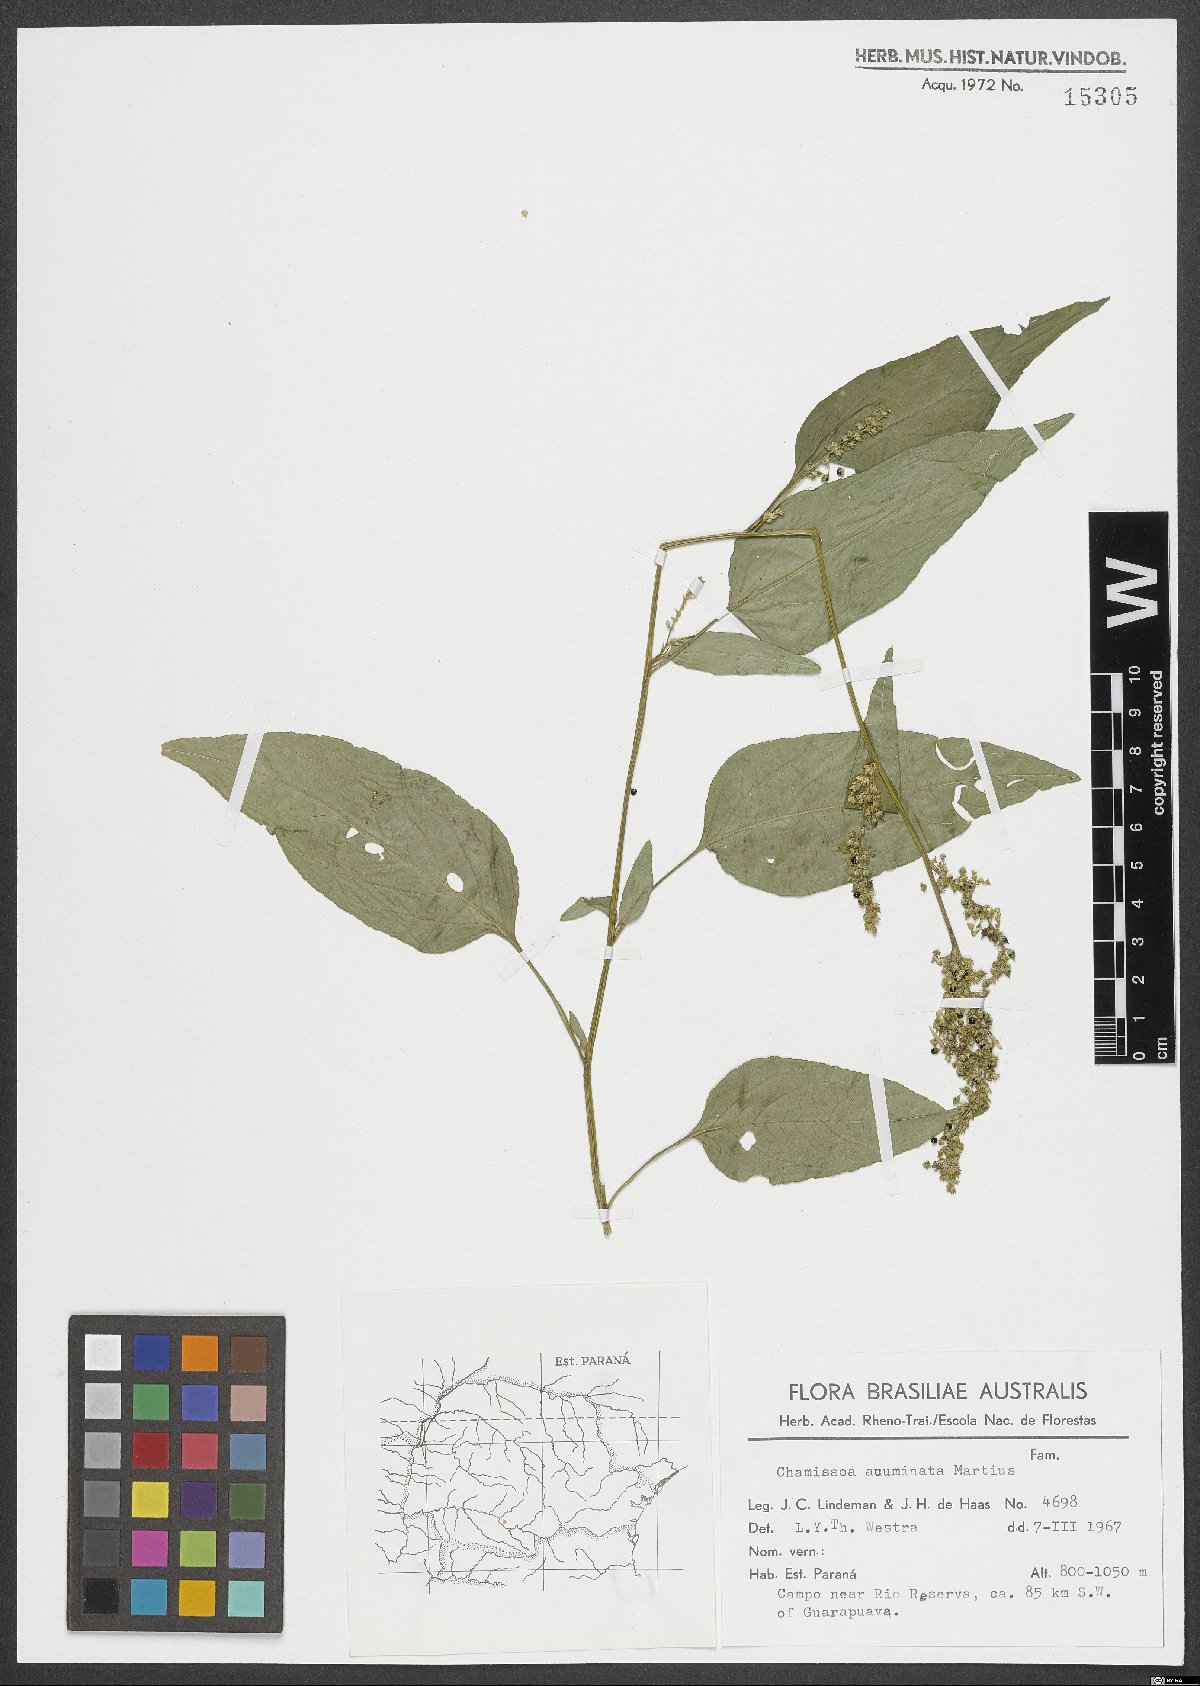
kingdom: Plantae
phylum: Tracheophyta
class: Magnoliopsida
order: Caryophyllales
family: Amaranthaceae
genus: Chamissoa
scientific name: Chamissoa acuminata
